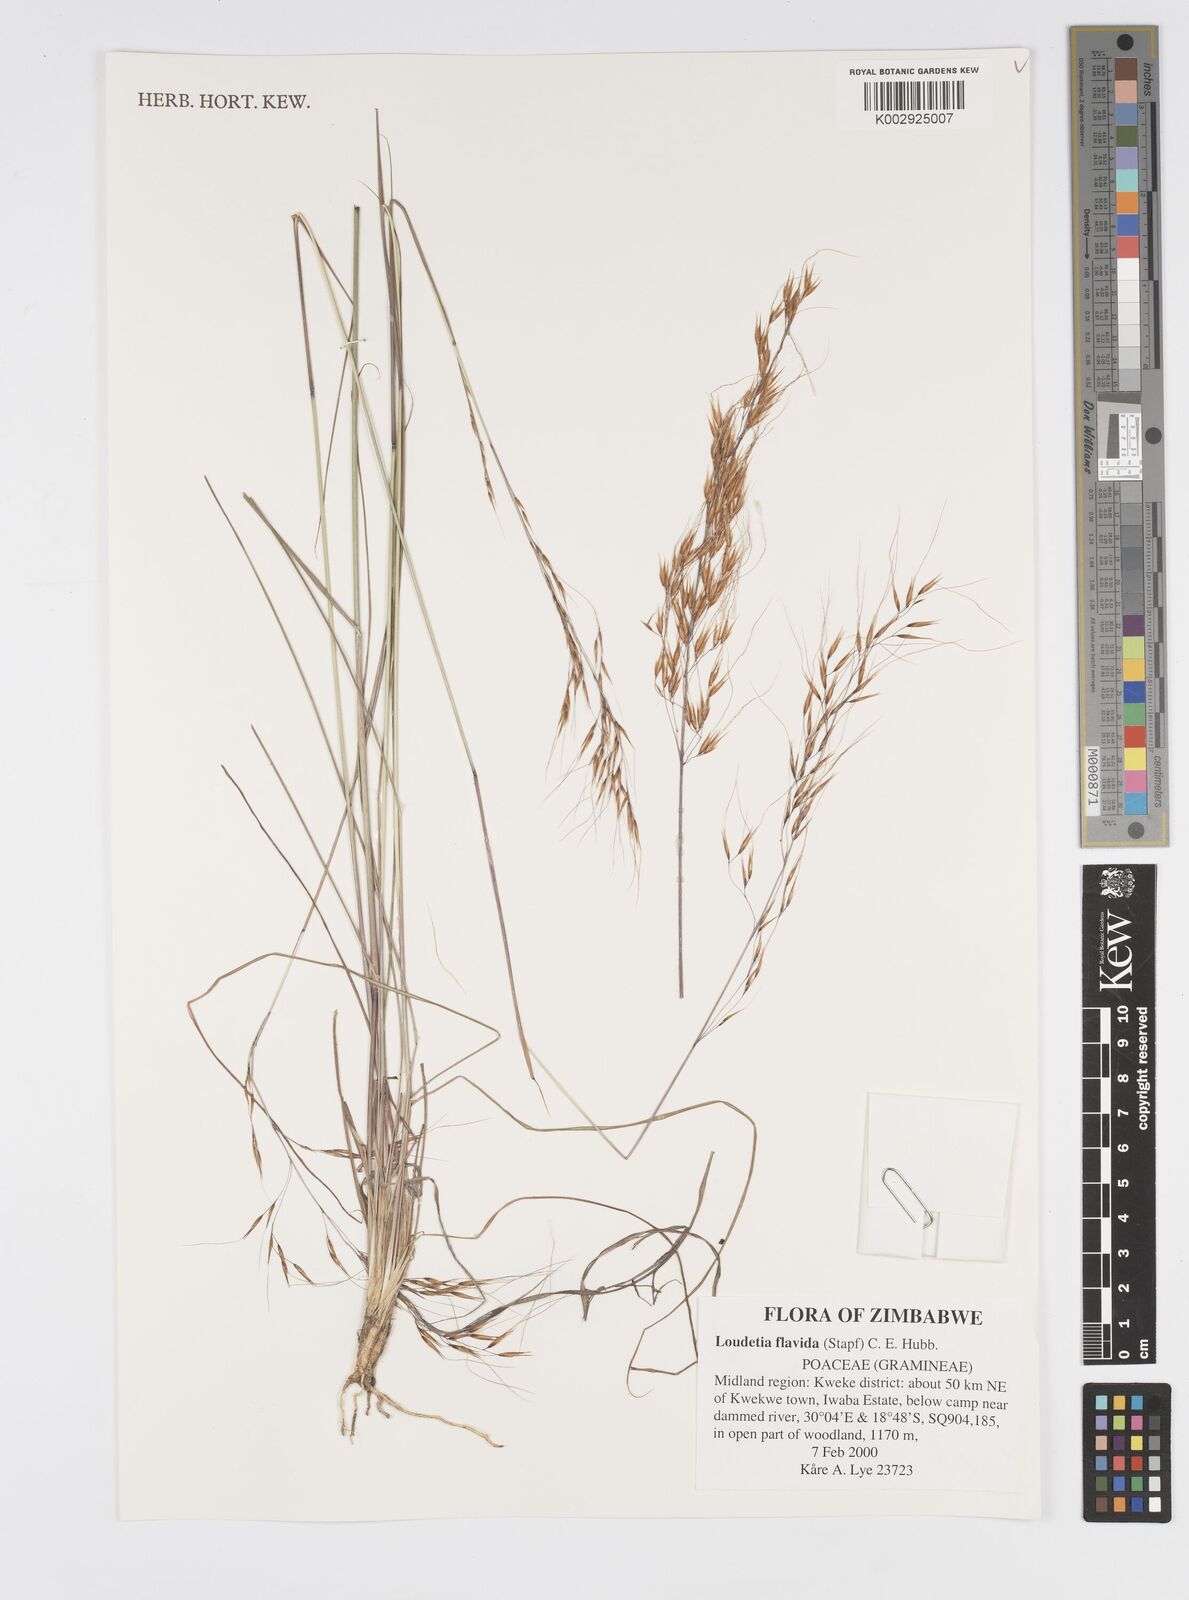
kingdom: Plantae
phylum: Tracheophyta
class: Liliopsida
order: Poales
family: Poaceae
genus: Loudetia
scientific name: Loudetia flavida
